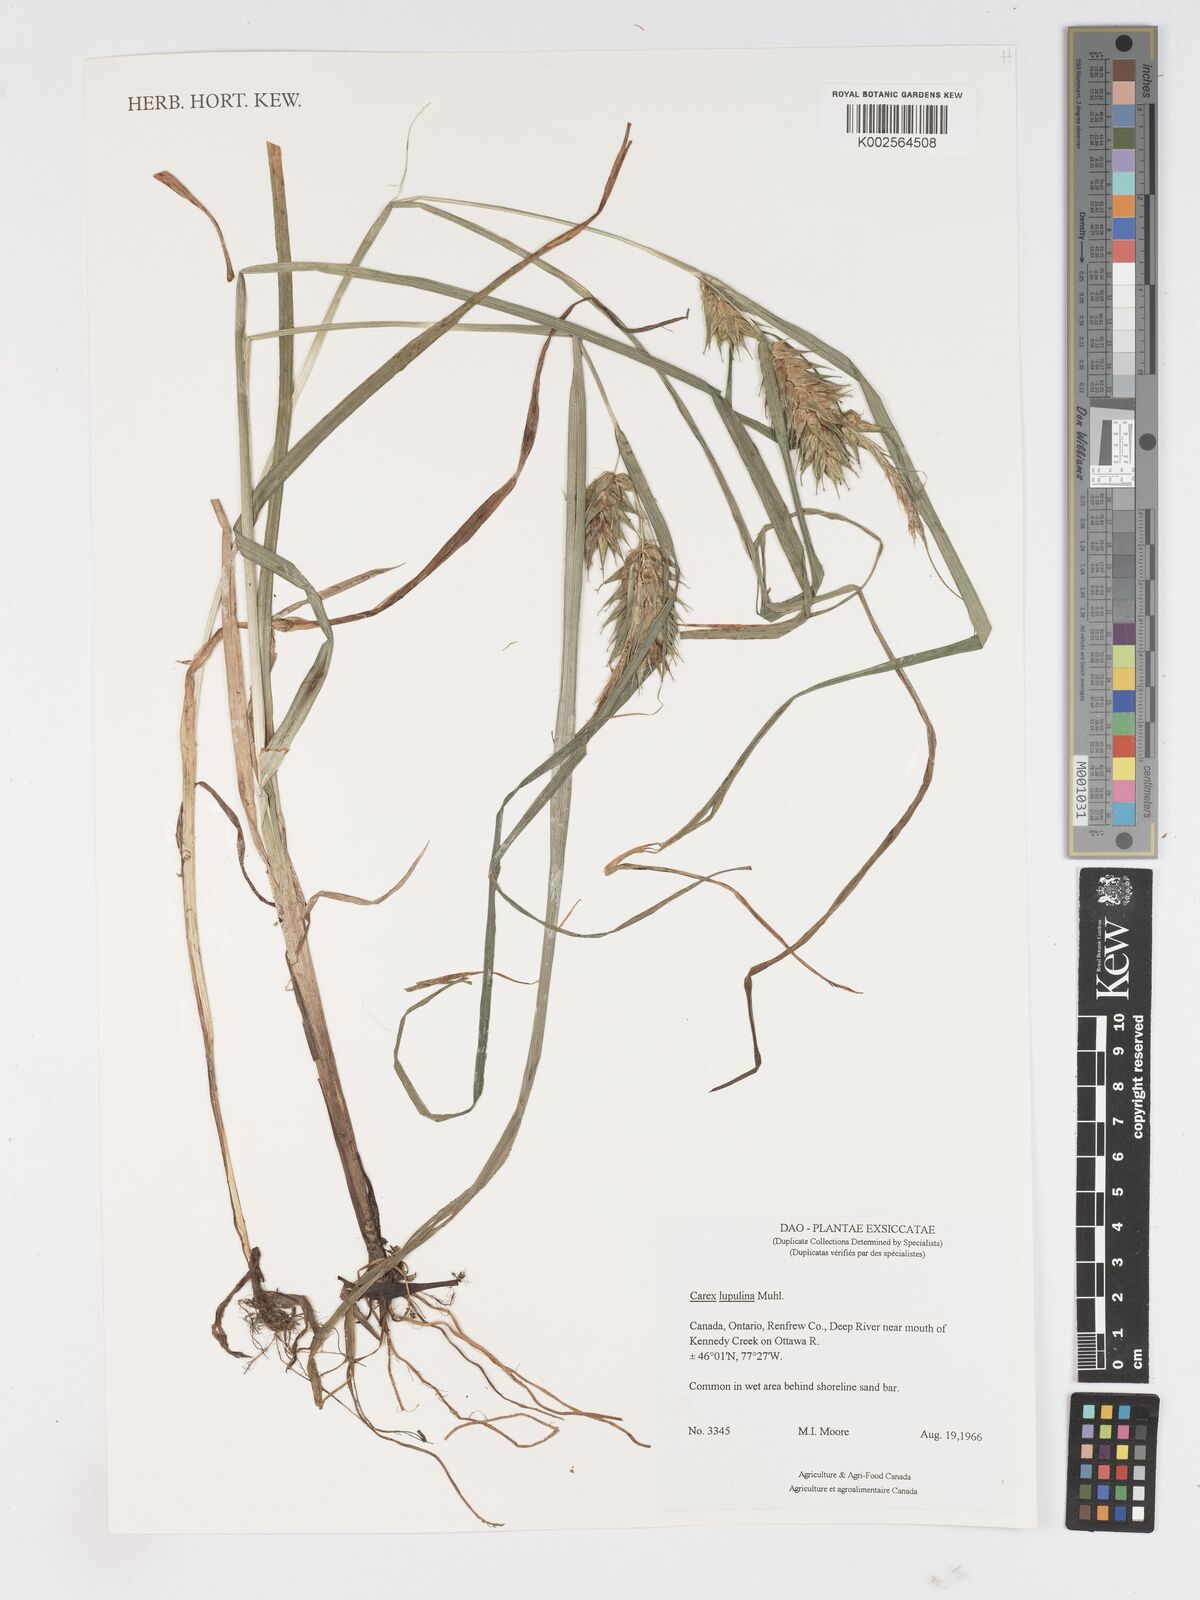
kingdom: Plantae
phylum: Tracheophyta
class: Liliopsida
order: Poales
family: Cyperaceae
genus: Carex
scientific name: Carex lupulina
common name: Hop sedge
